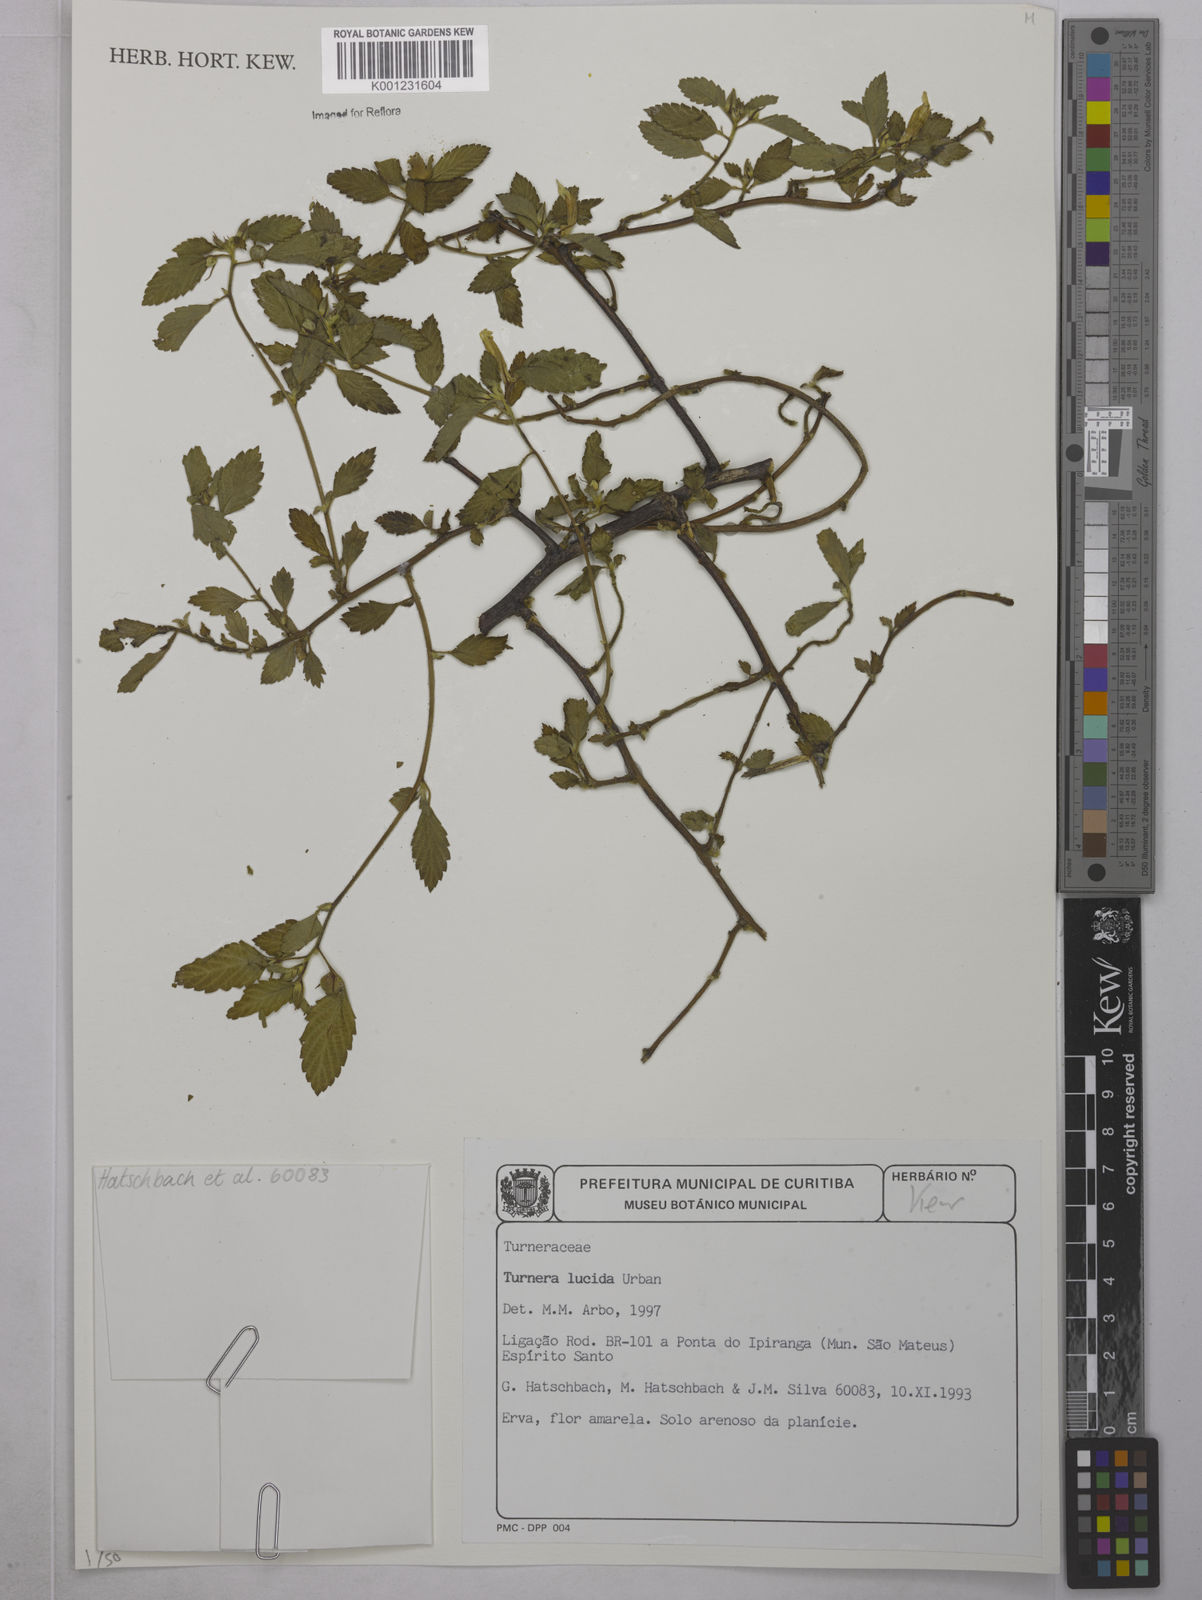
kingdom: Plantae
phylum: Tracheophyta
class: Magnoliopsida
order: Malpighiales
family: Turneraceae
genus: Turnera
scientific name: Turnera lucida
